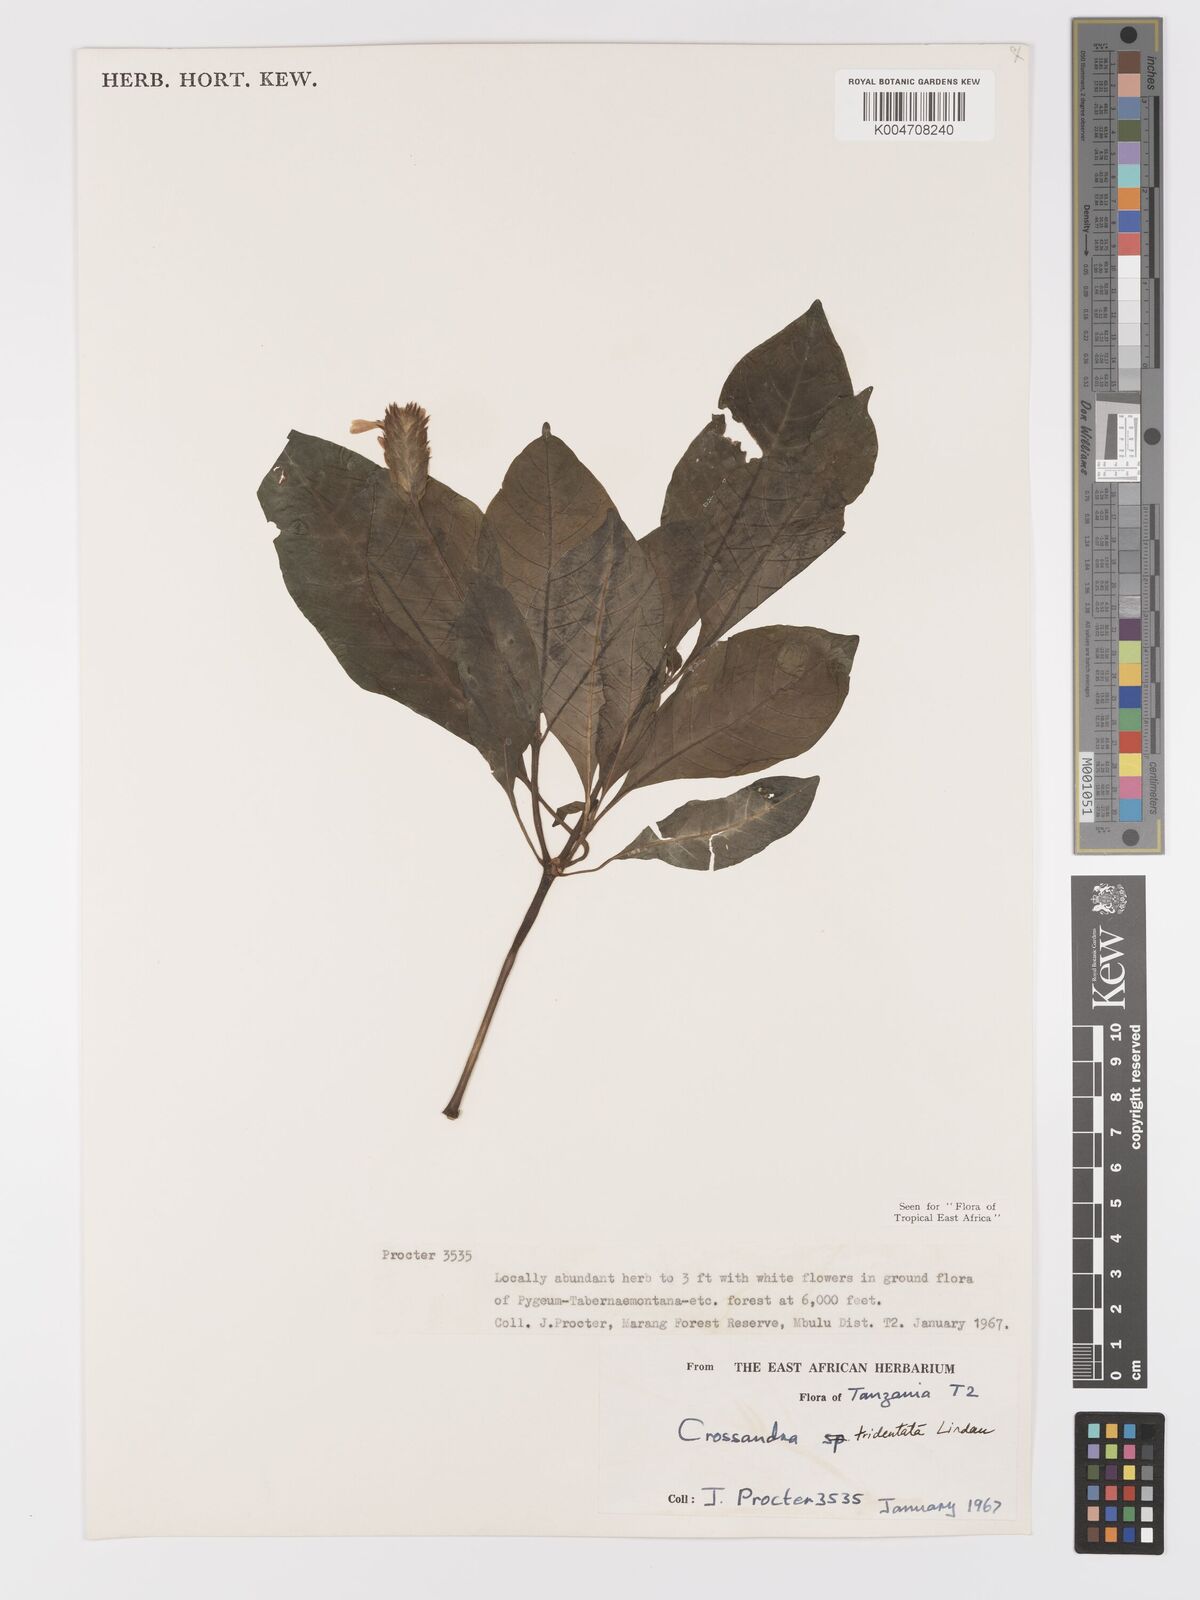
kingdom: Plantae
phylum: Tracheophyta
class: Magnoliopsida
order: Lamiales
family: Acanthaceae
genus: Crossandra
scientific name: Crossandra tridentata
